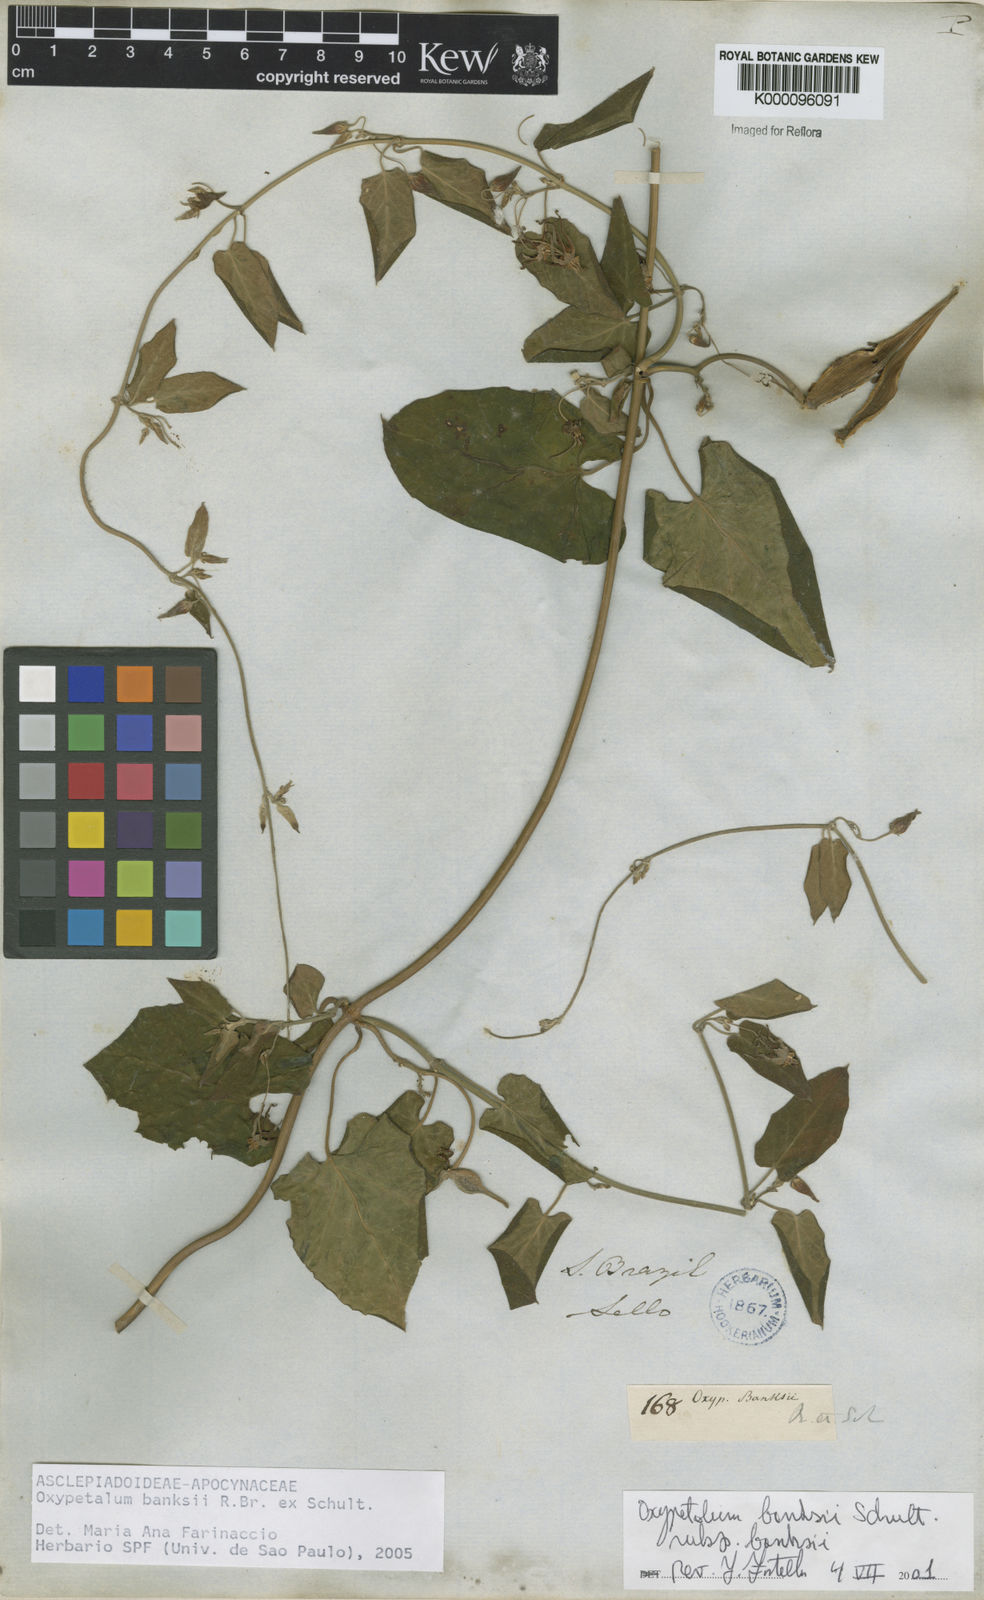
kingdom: Plantae
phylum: Tracheophyta
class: Magnoliopsida
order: Gentianales
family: Apocynaceae
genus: Oxypetalum
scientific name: Oxypetalum banksii
